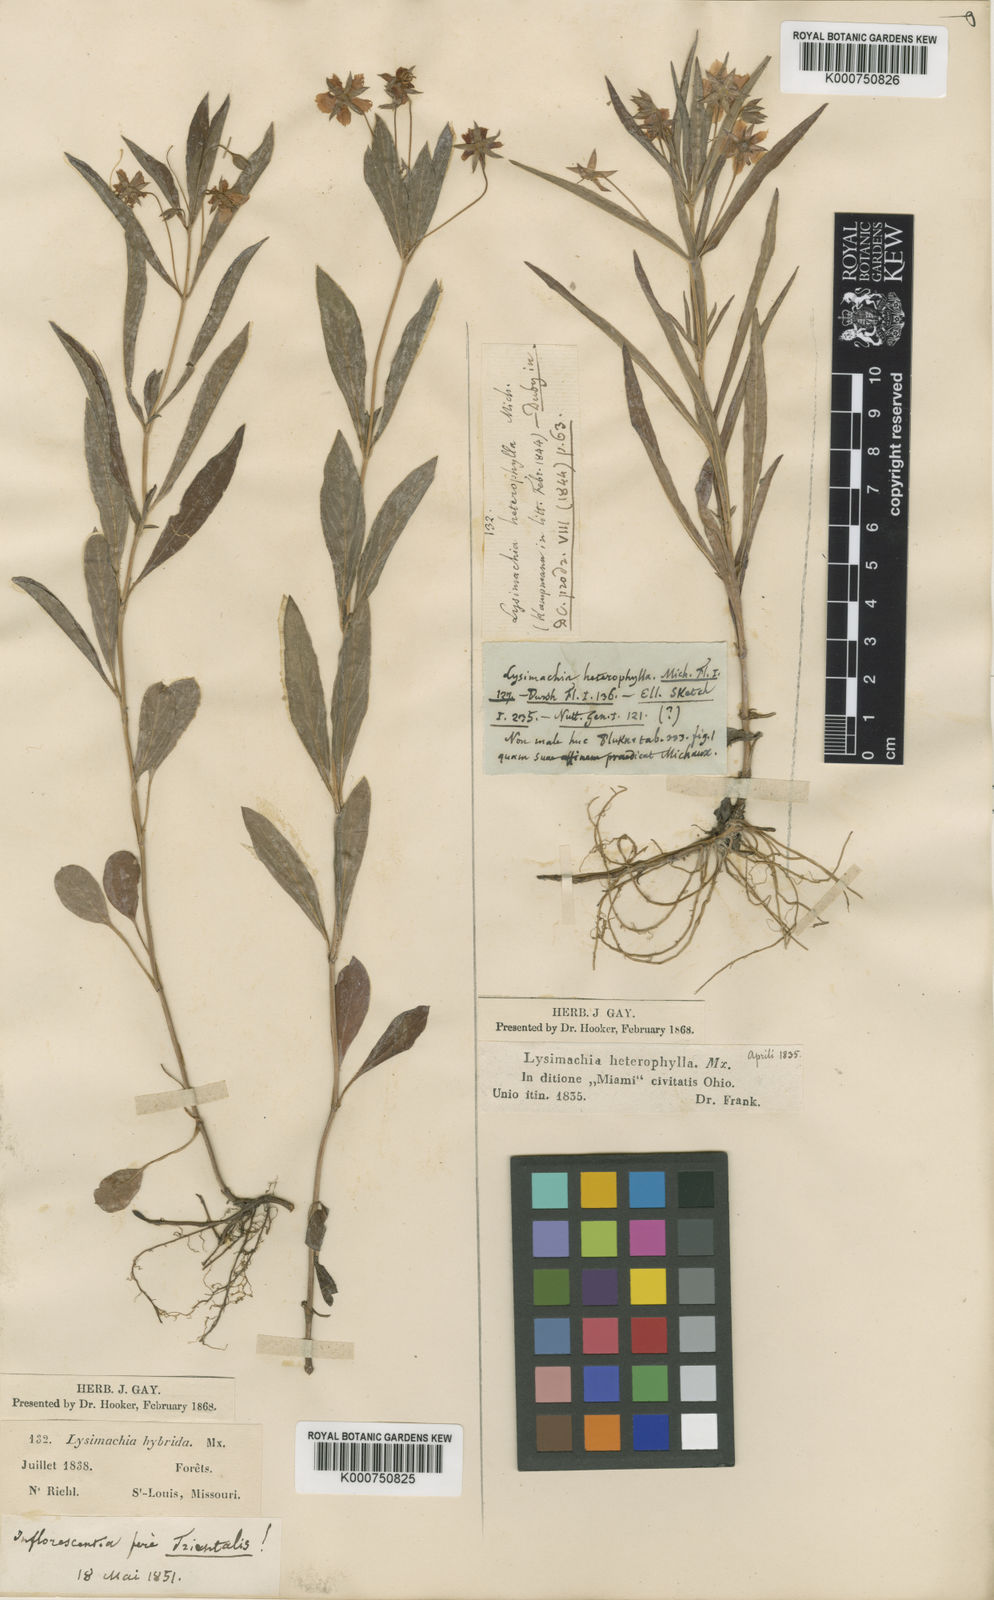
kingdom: Plantae
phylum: Tracheophyta
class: Magnoliopsida
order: Ericales
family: Primulaceae
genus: Lysimachia
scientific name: Lysimachia lanceolata
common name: Lance-leaved loosestrife
